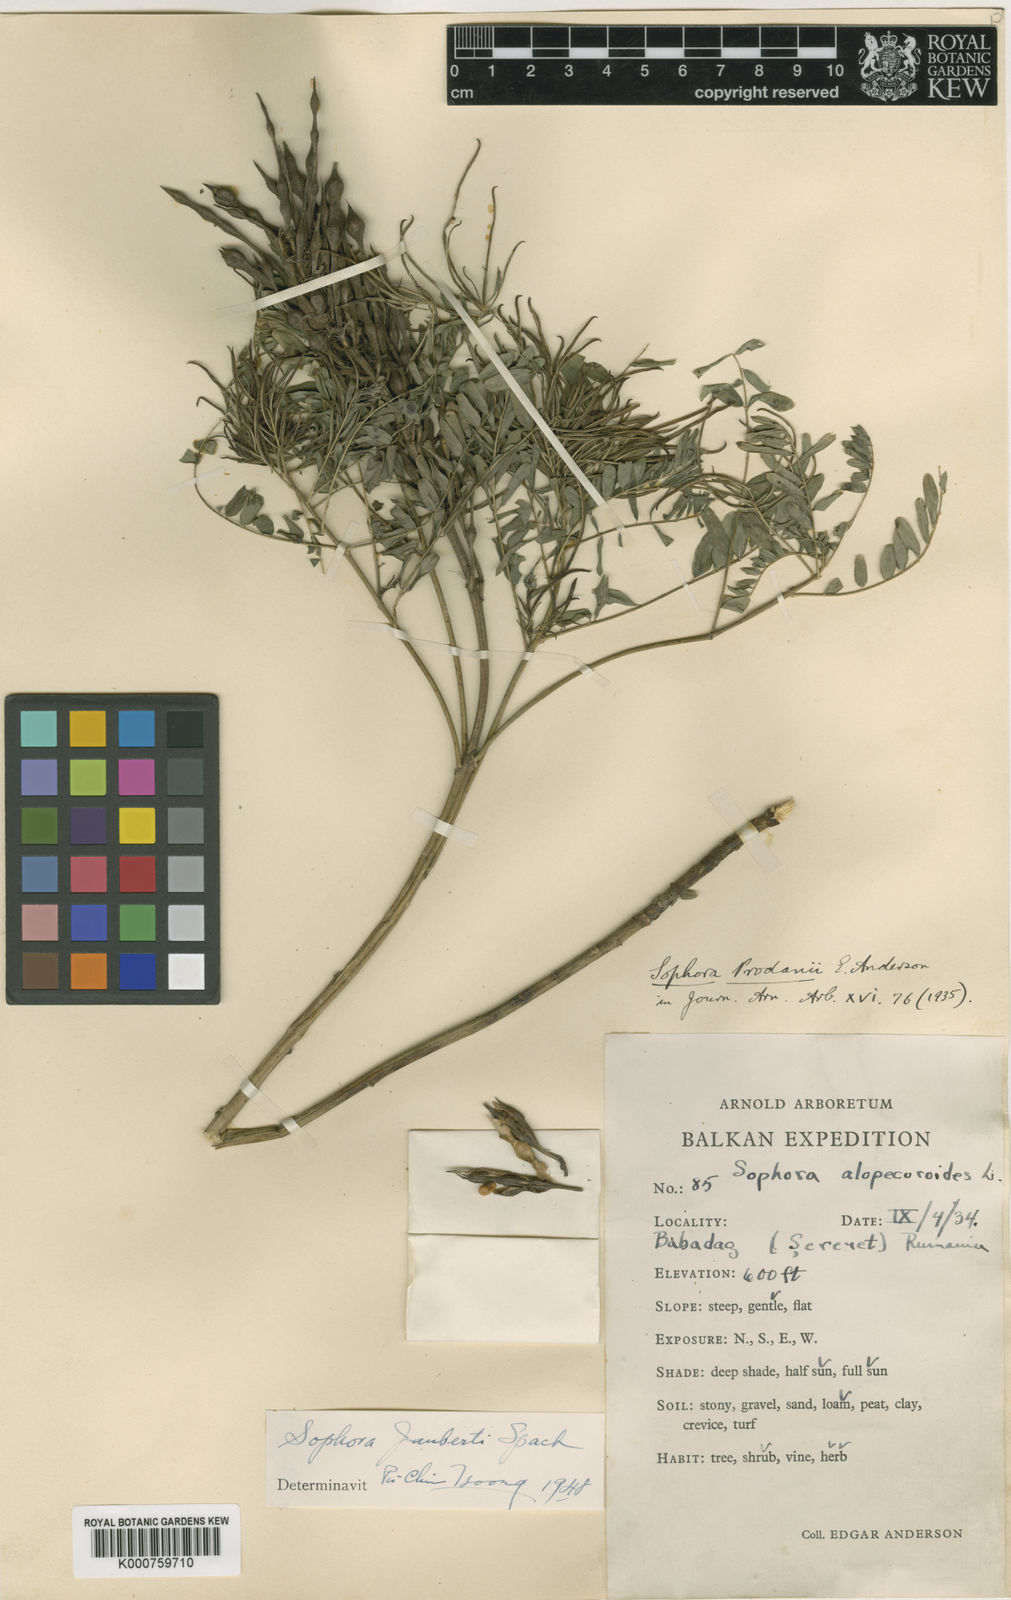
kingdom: Plantae
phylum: Tracheophyta
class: Magnoliopsida
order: Fabales
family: Fabaceae
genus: Sophora
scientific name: Sophora jaubertii
